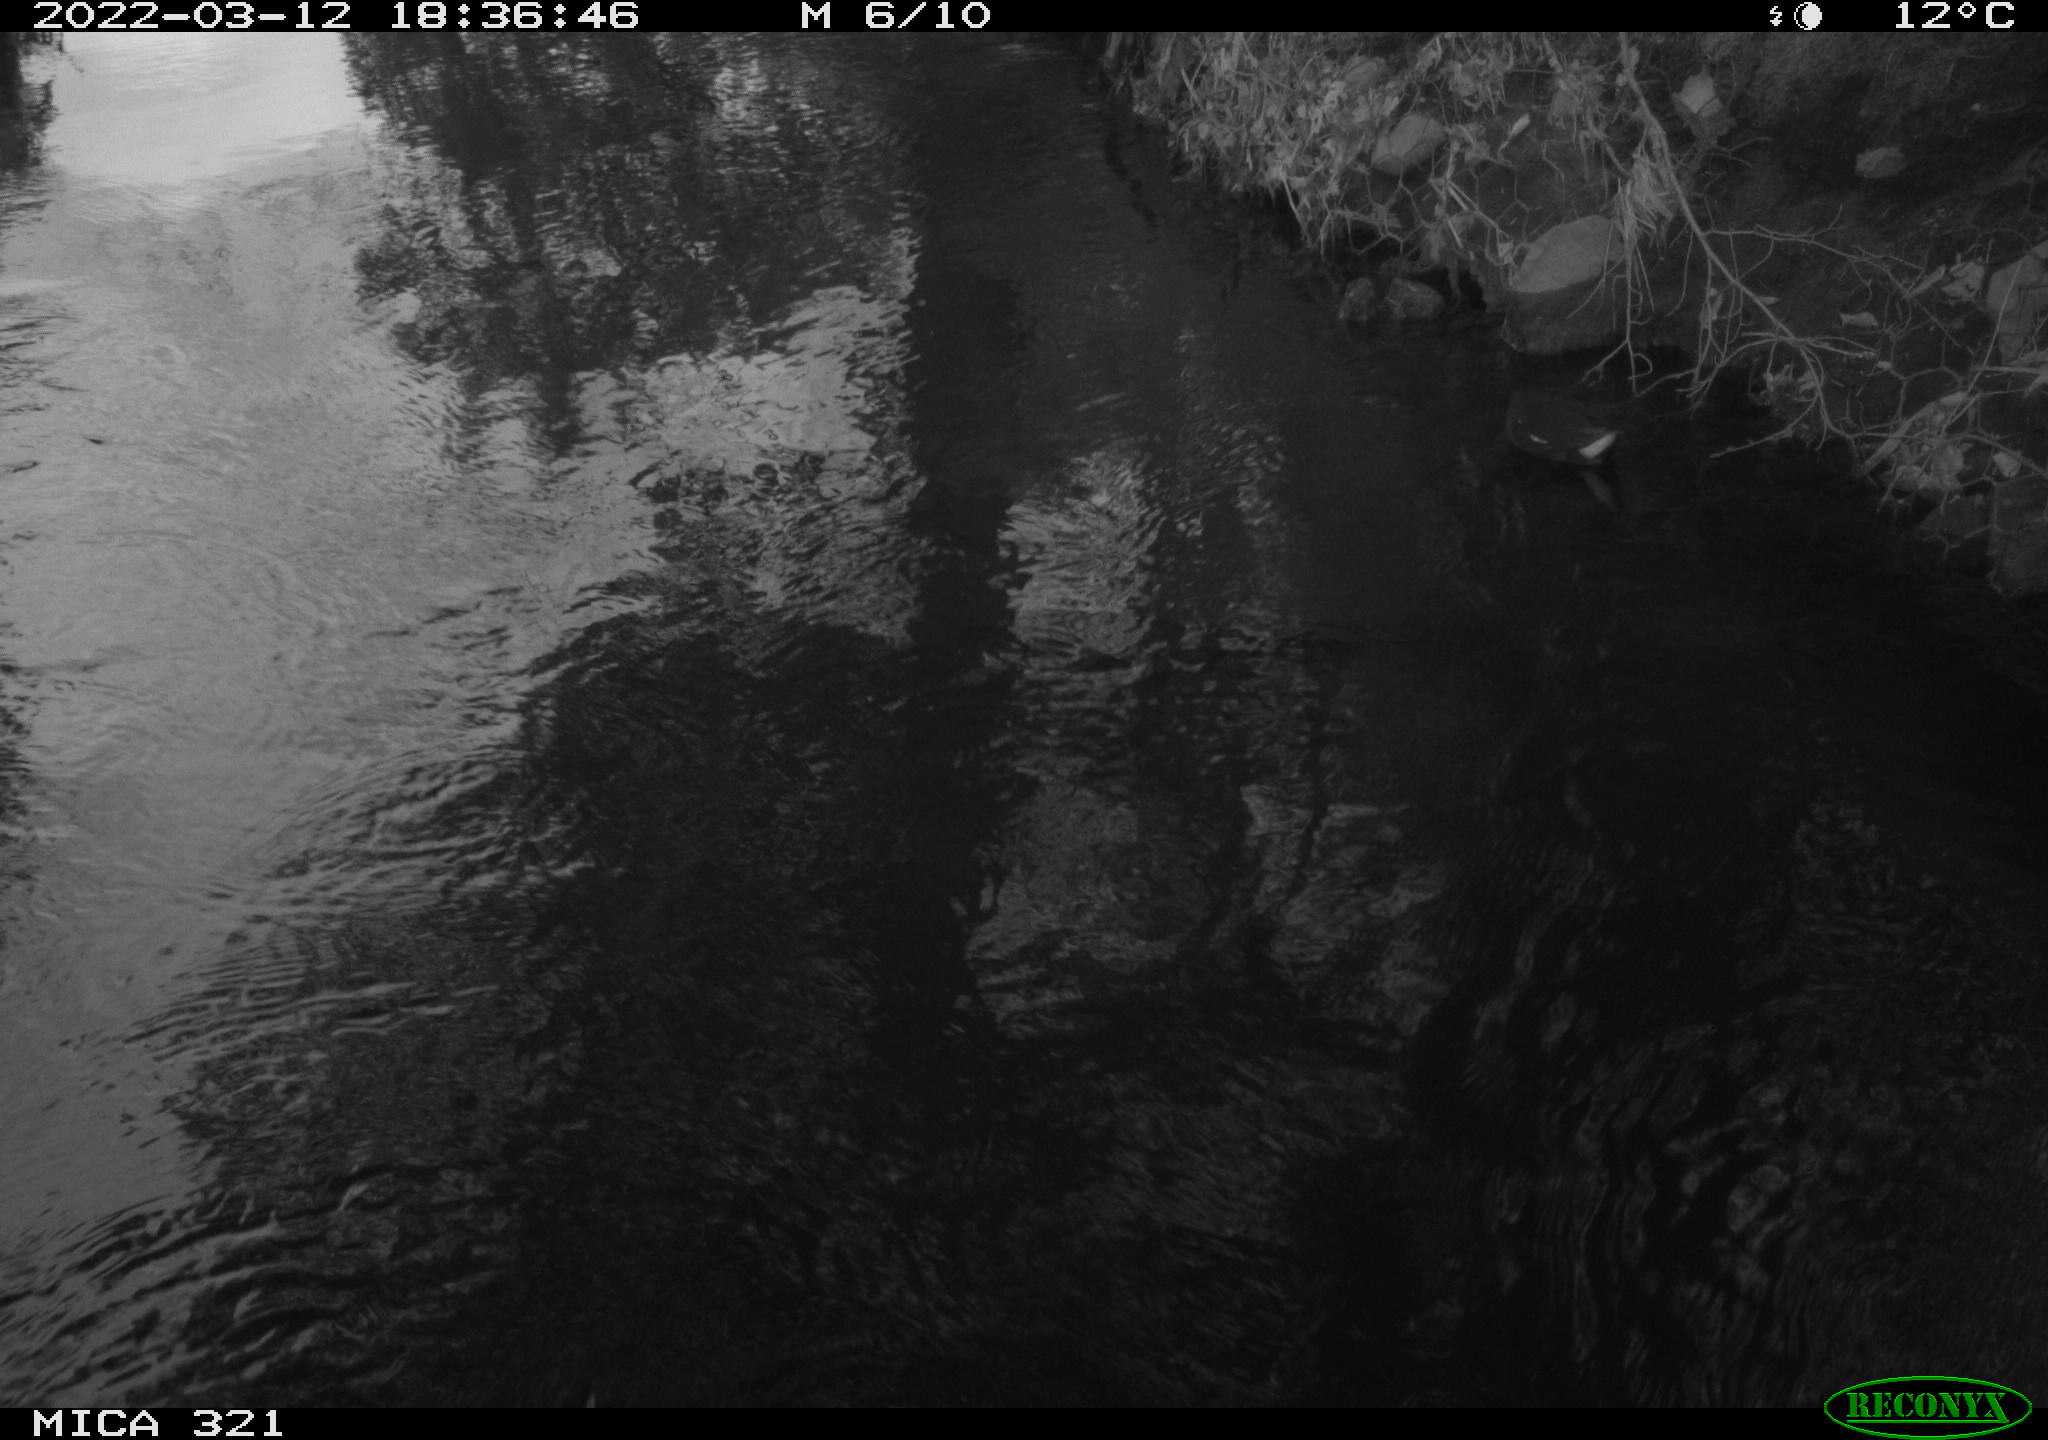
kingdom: Animalia
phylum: Chordata
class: Aves
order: Gruiformes
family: Rallidae
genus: Gallinula
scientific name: Gallinula chloropus
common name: Common moorhen
